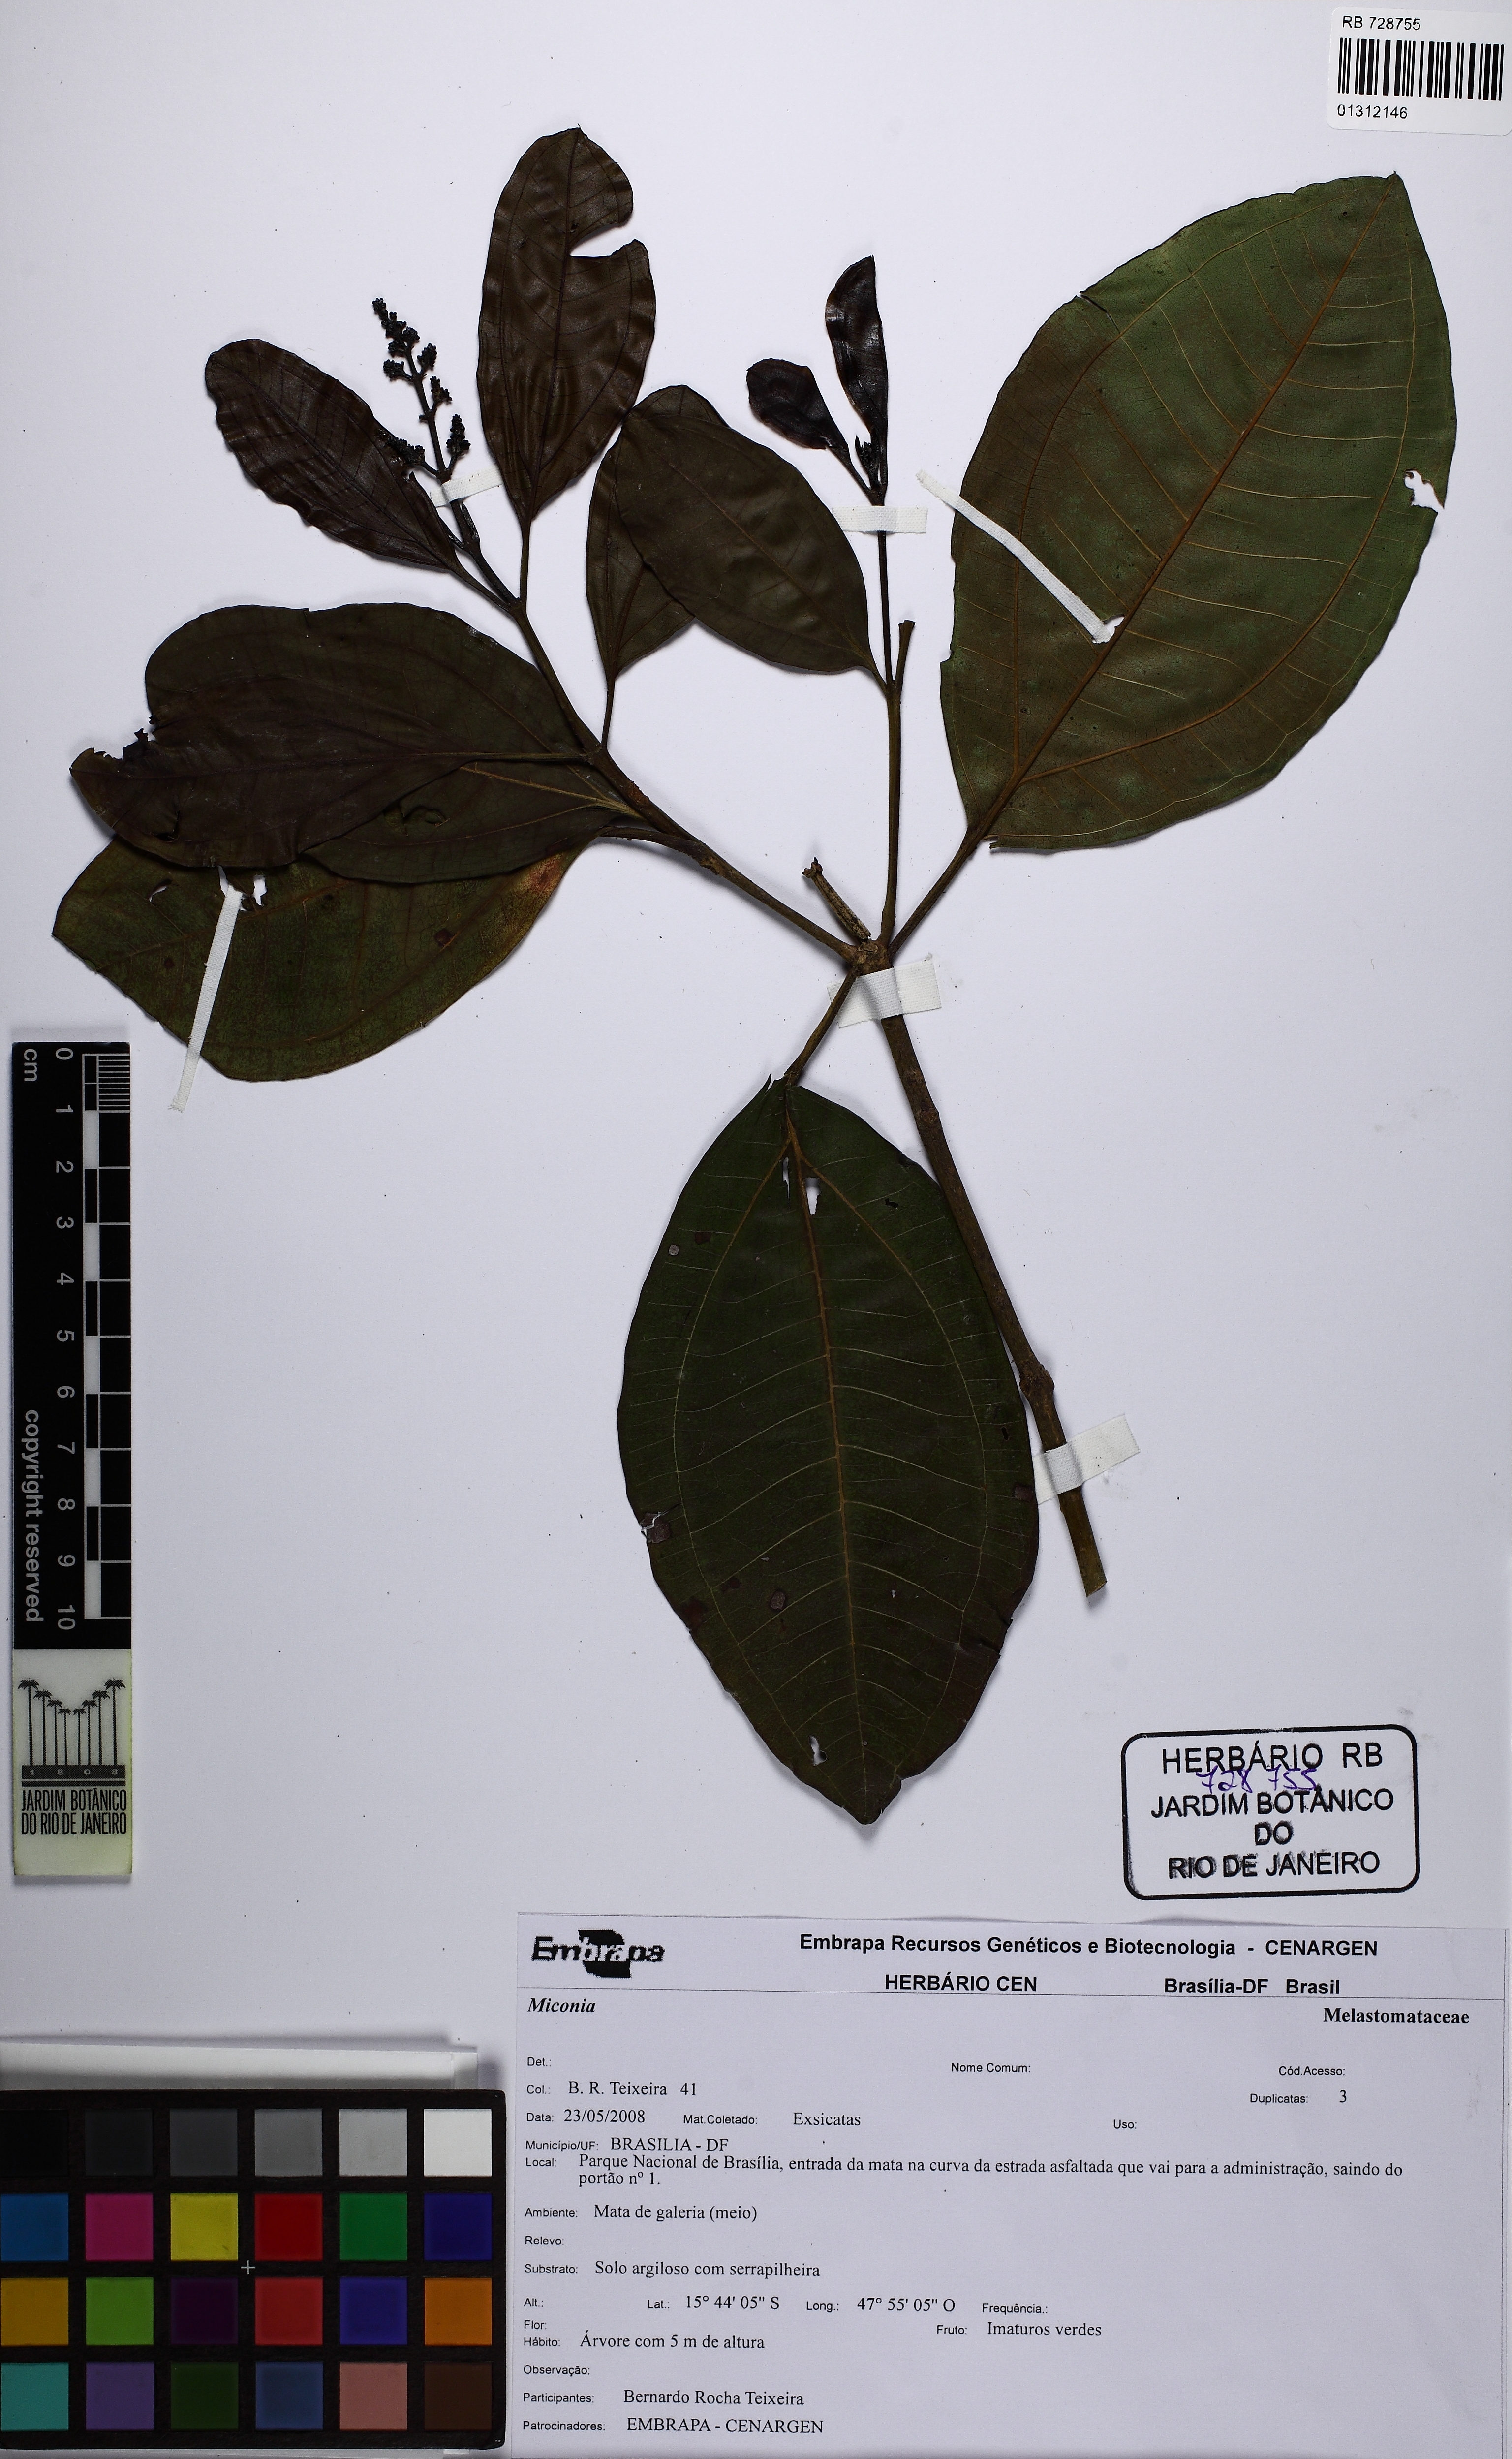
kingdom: Plantae
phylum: Tracheophyta
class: Magnoliopsida
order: Myrtales
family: Melastomataceae
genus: Miconia
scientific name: Miconia
